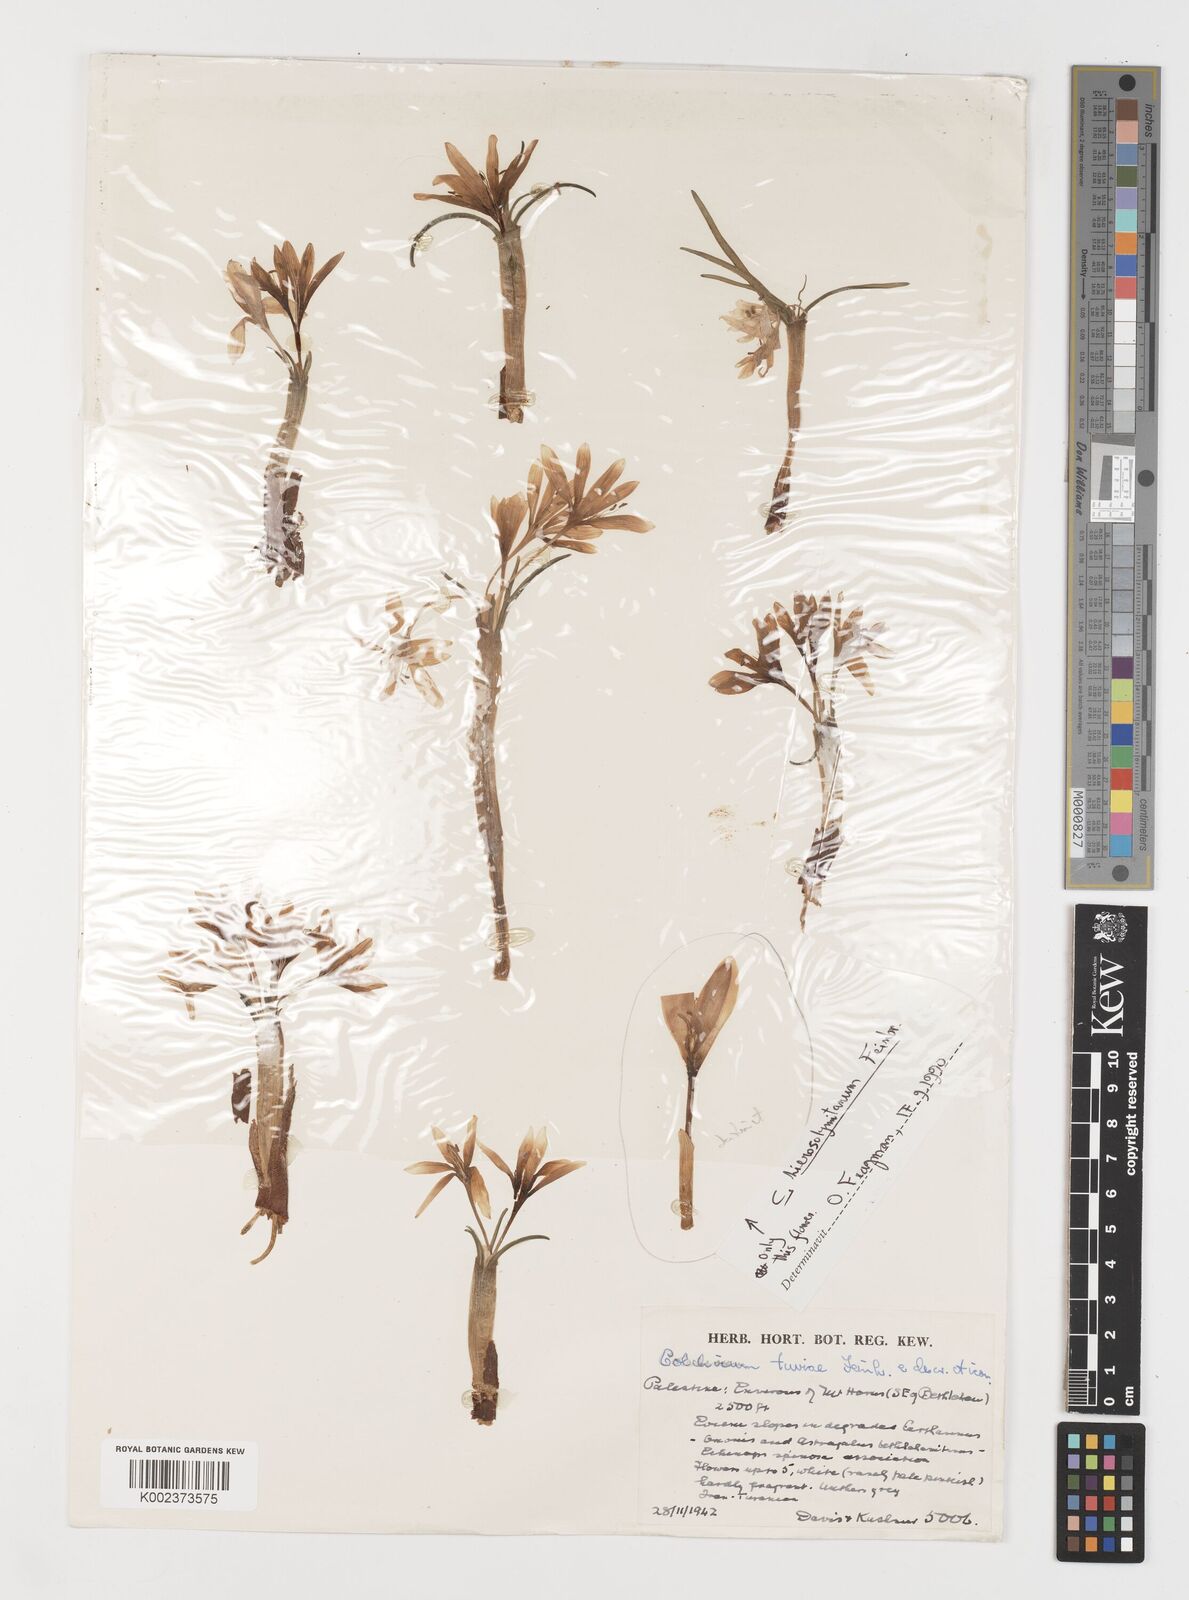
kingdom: Plantae
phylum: Tracheophyta
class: Liliopsida
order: Liliales
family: Colchicaceae
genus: Colchicum
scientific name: Colchicum tuviae
